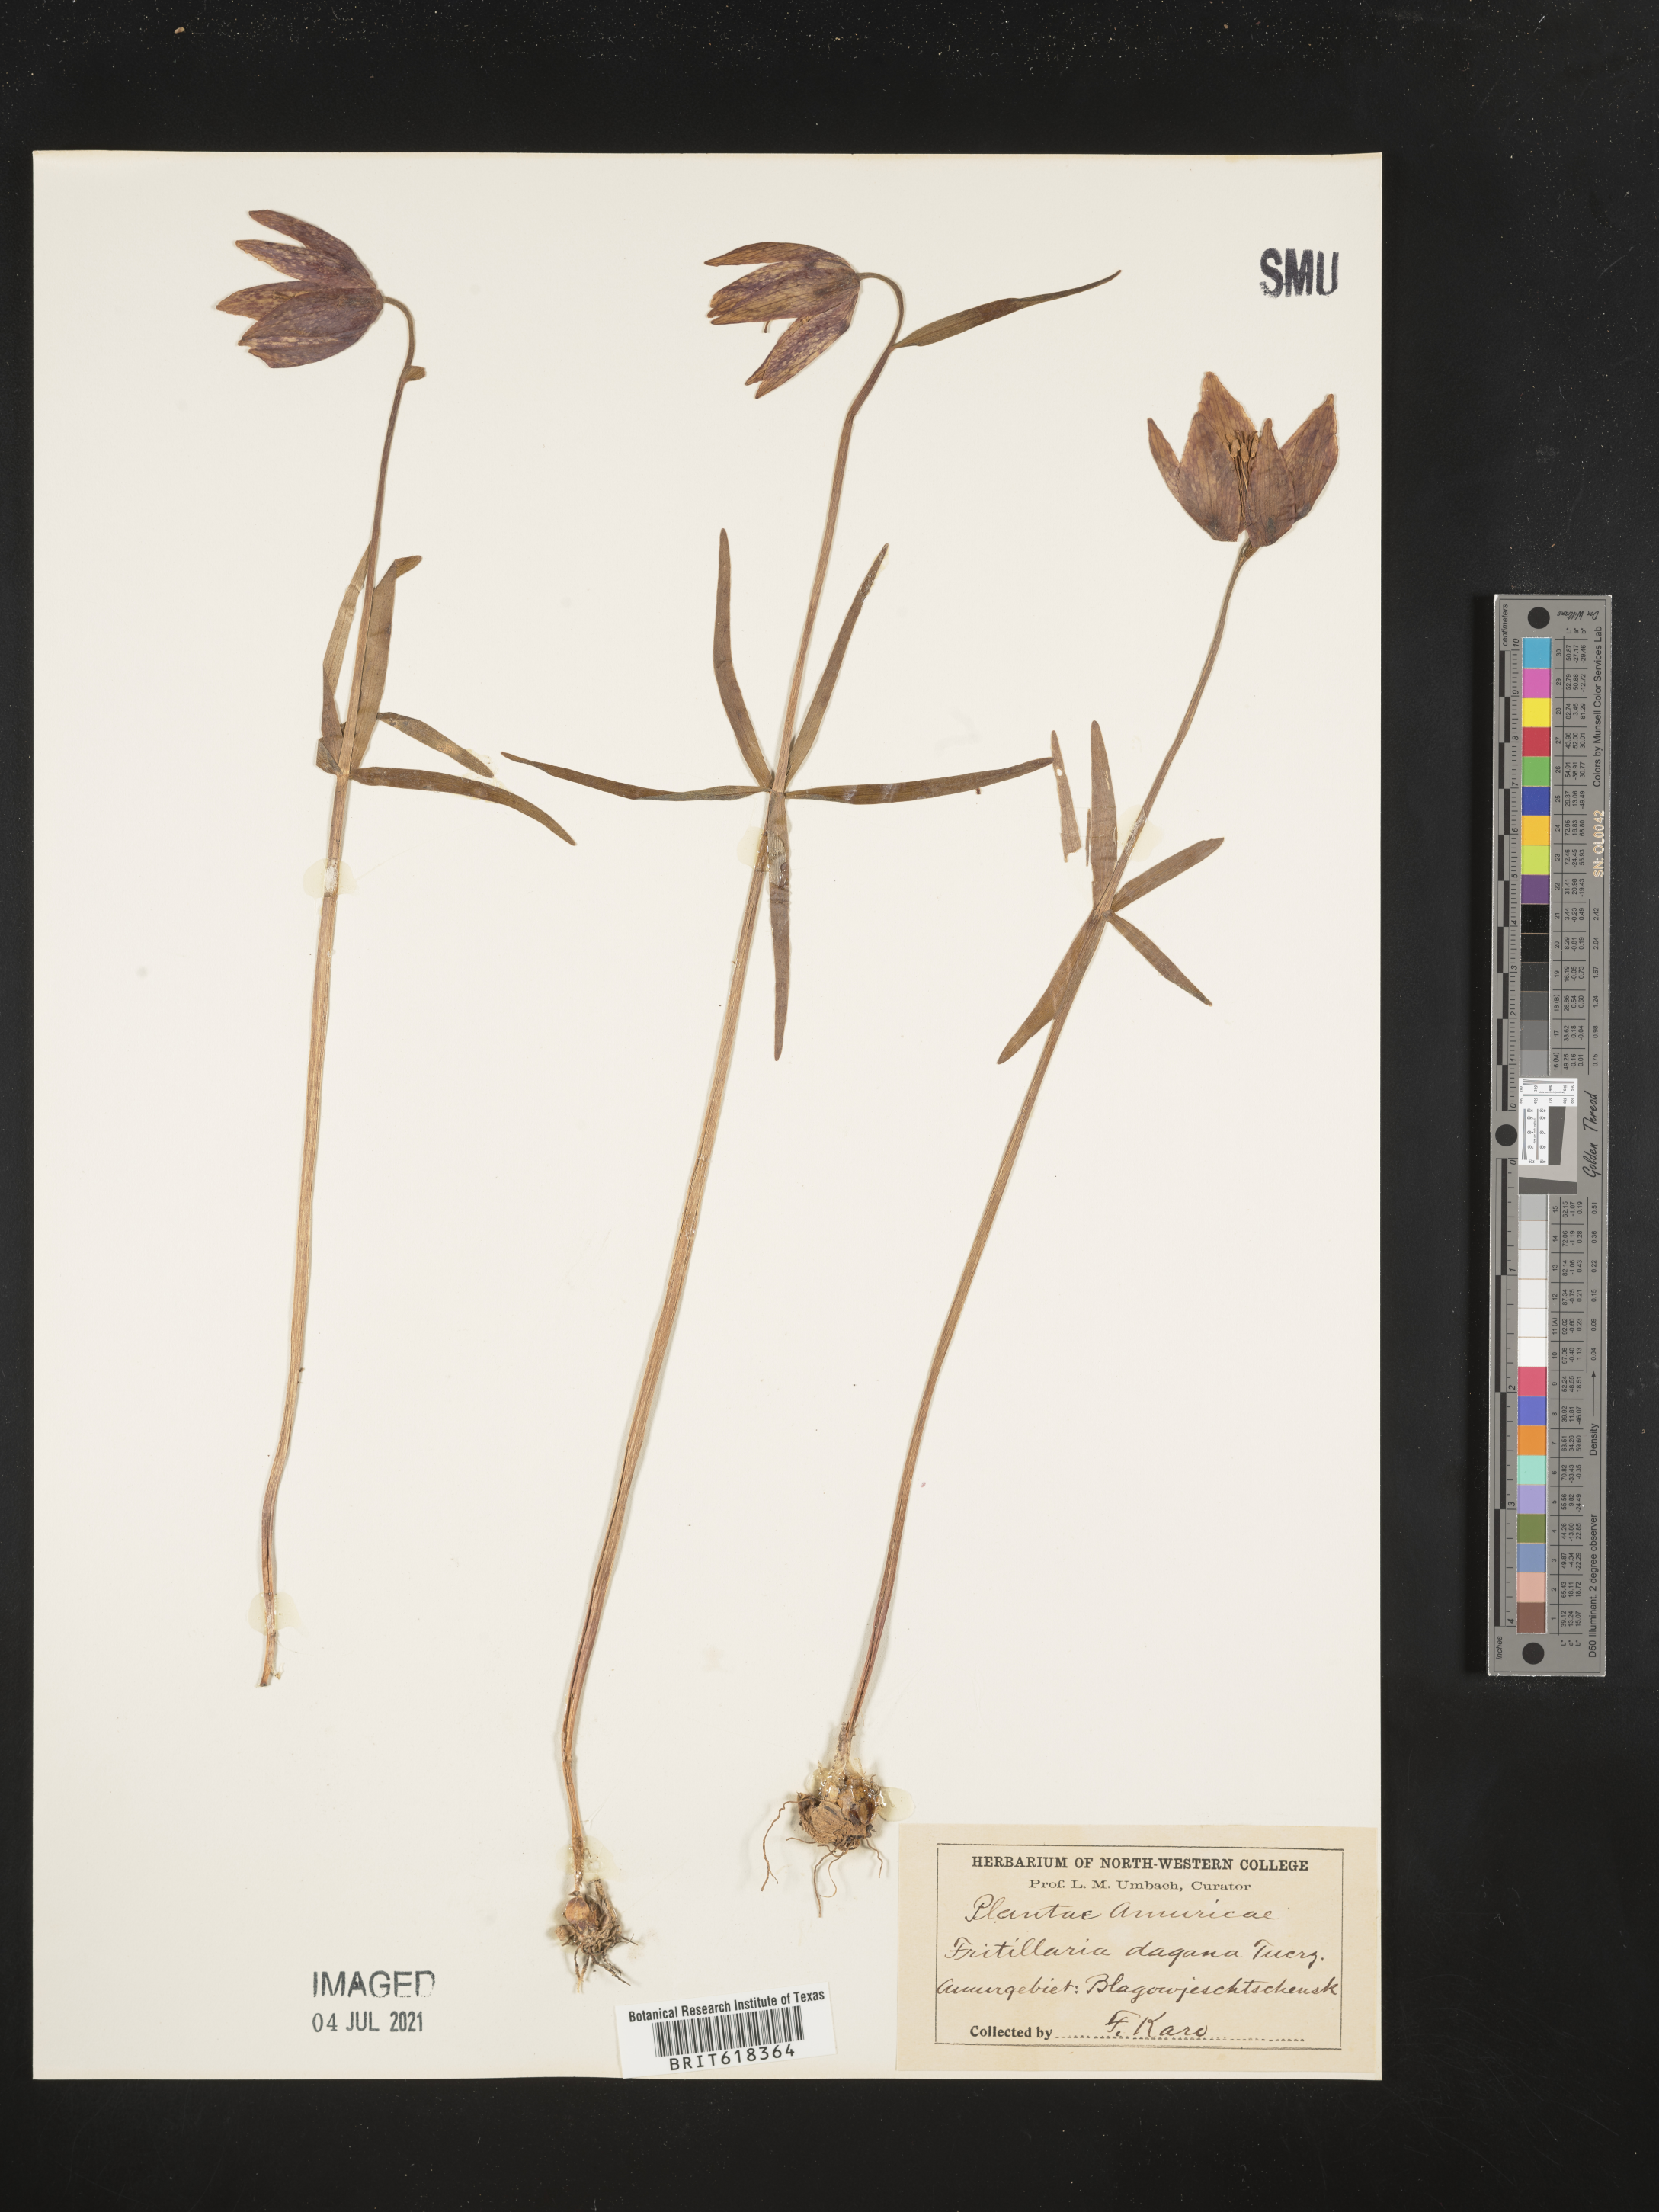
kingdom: Plantae
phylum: Tracheophyta
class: Liliopsida
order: Liliales
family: Liliaceae
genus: Fritillaria
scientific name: Fritillaria dagana
